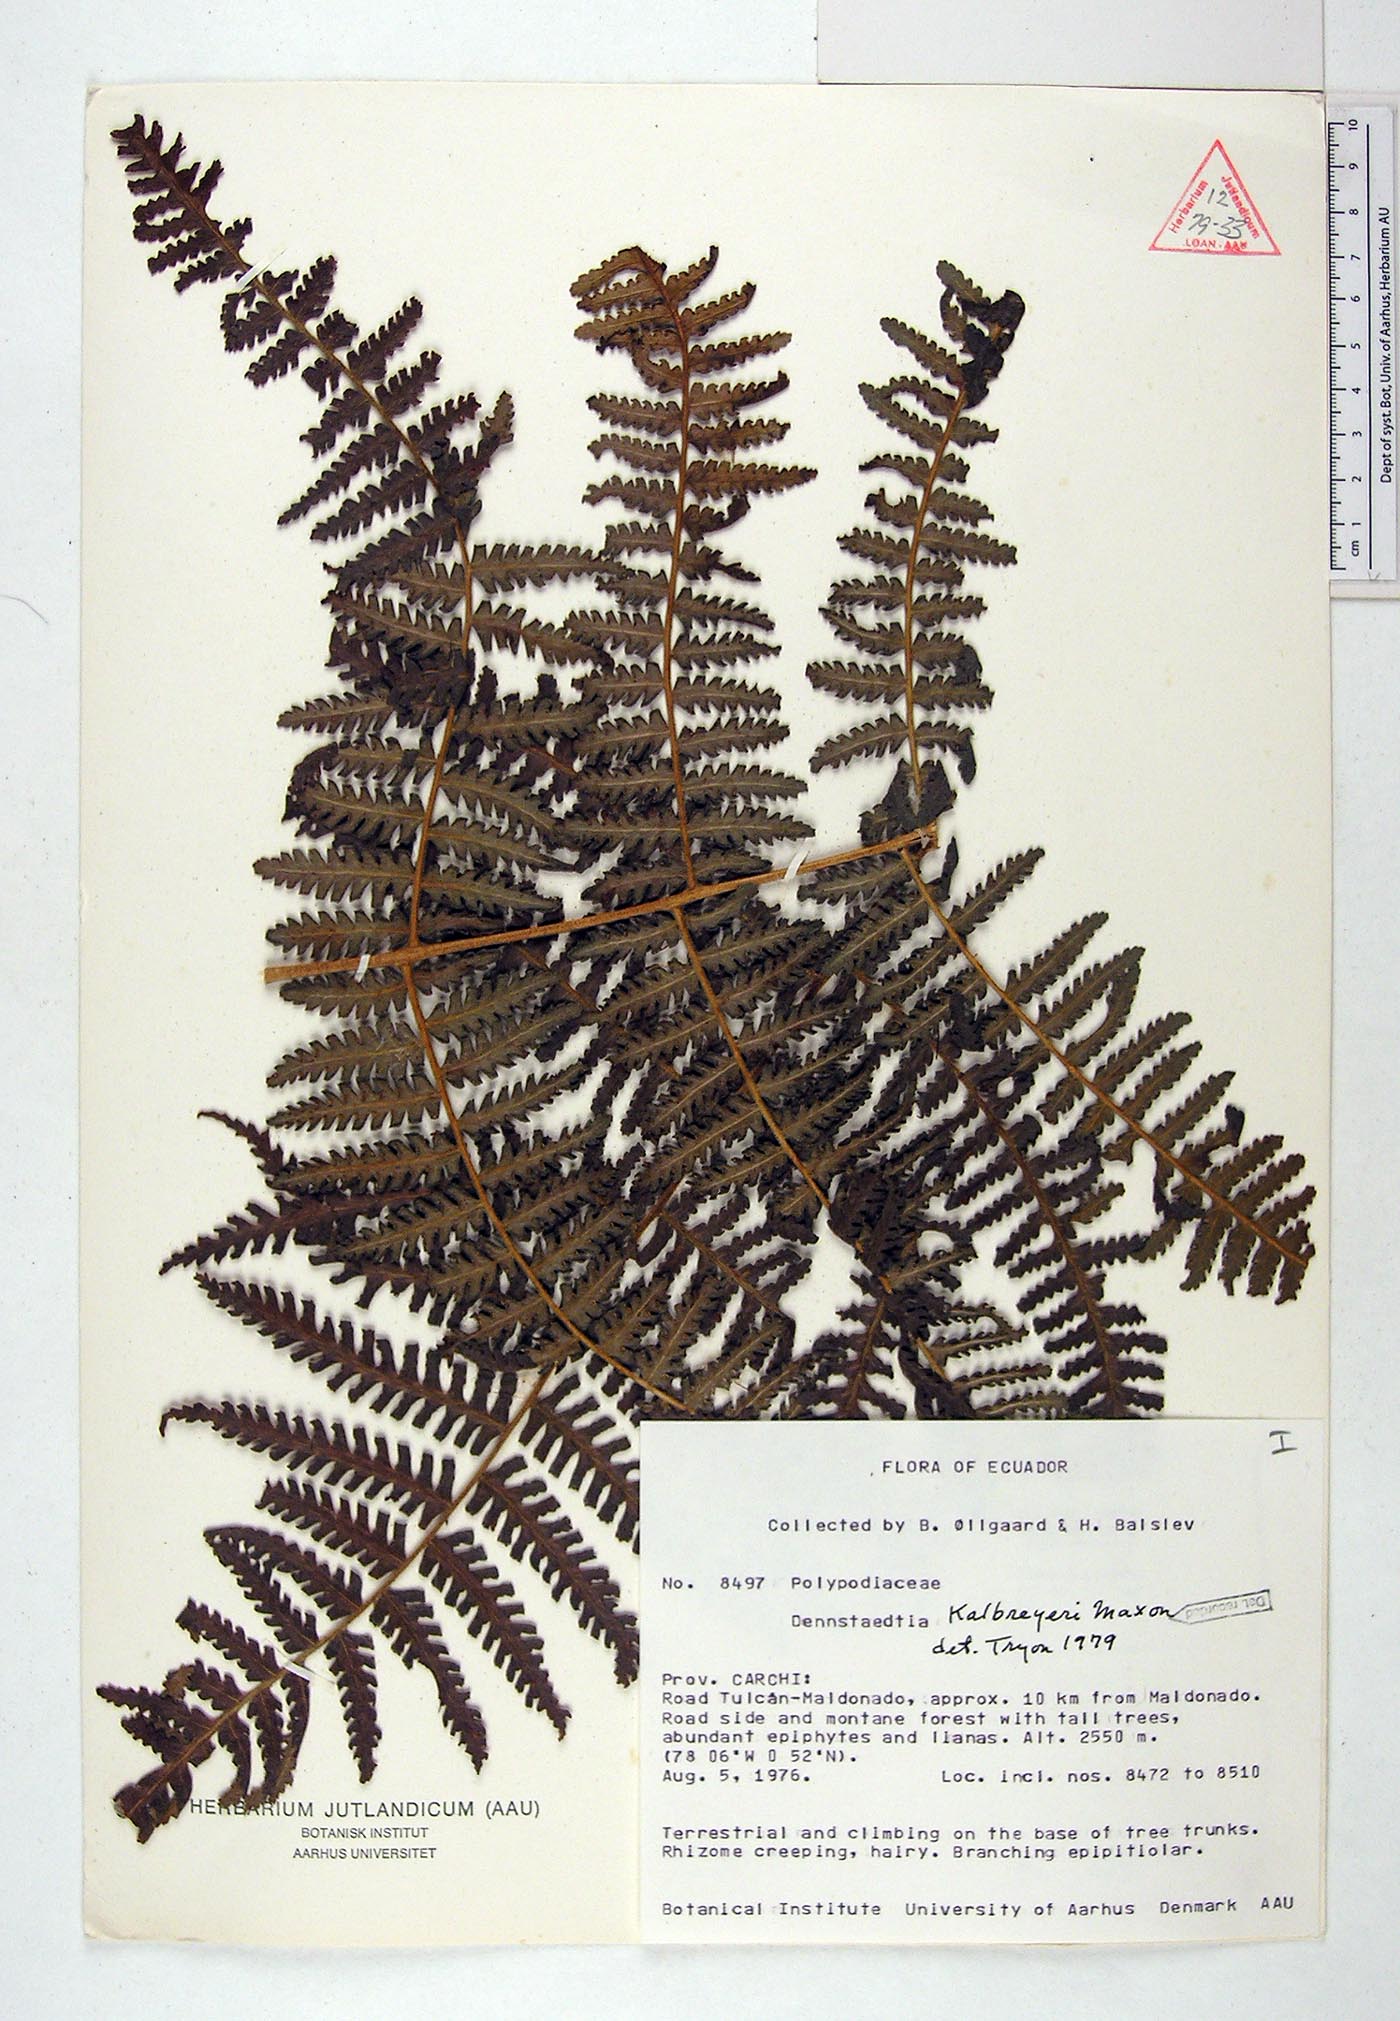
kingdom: Plantae
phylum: Tracheophyta
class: Polypodiopsida
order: Polypodiales
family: Dennstaedtiaceae
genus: Dennstaedtia
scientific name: Dennstaedtia obtusifolia
